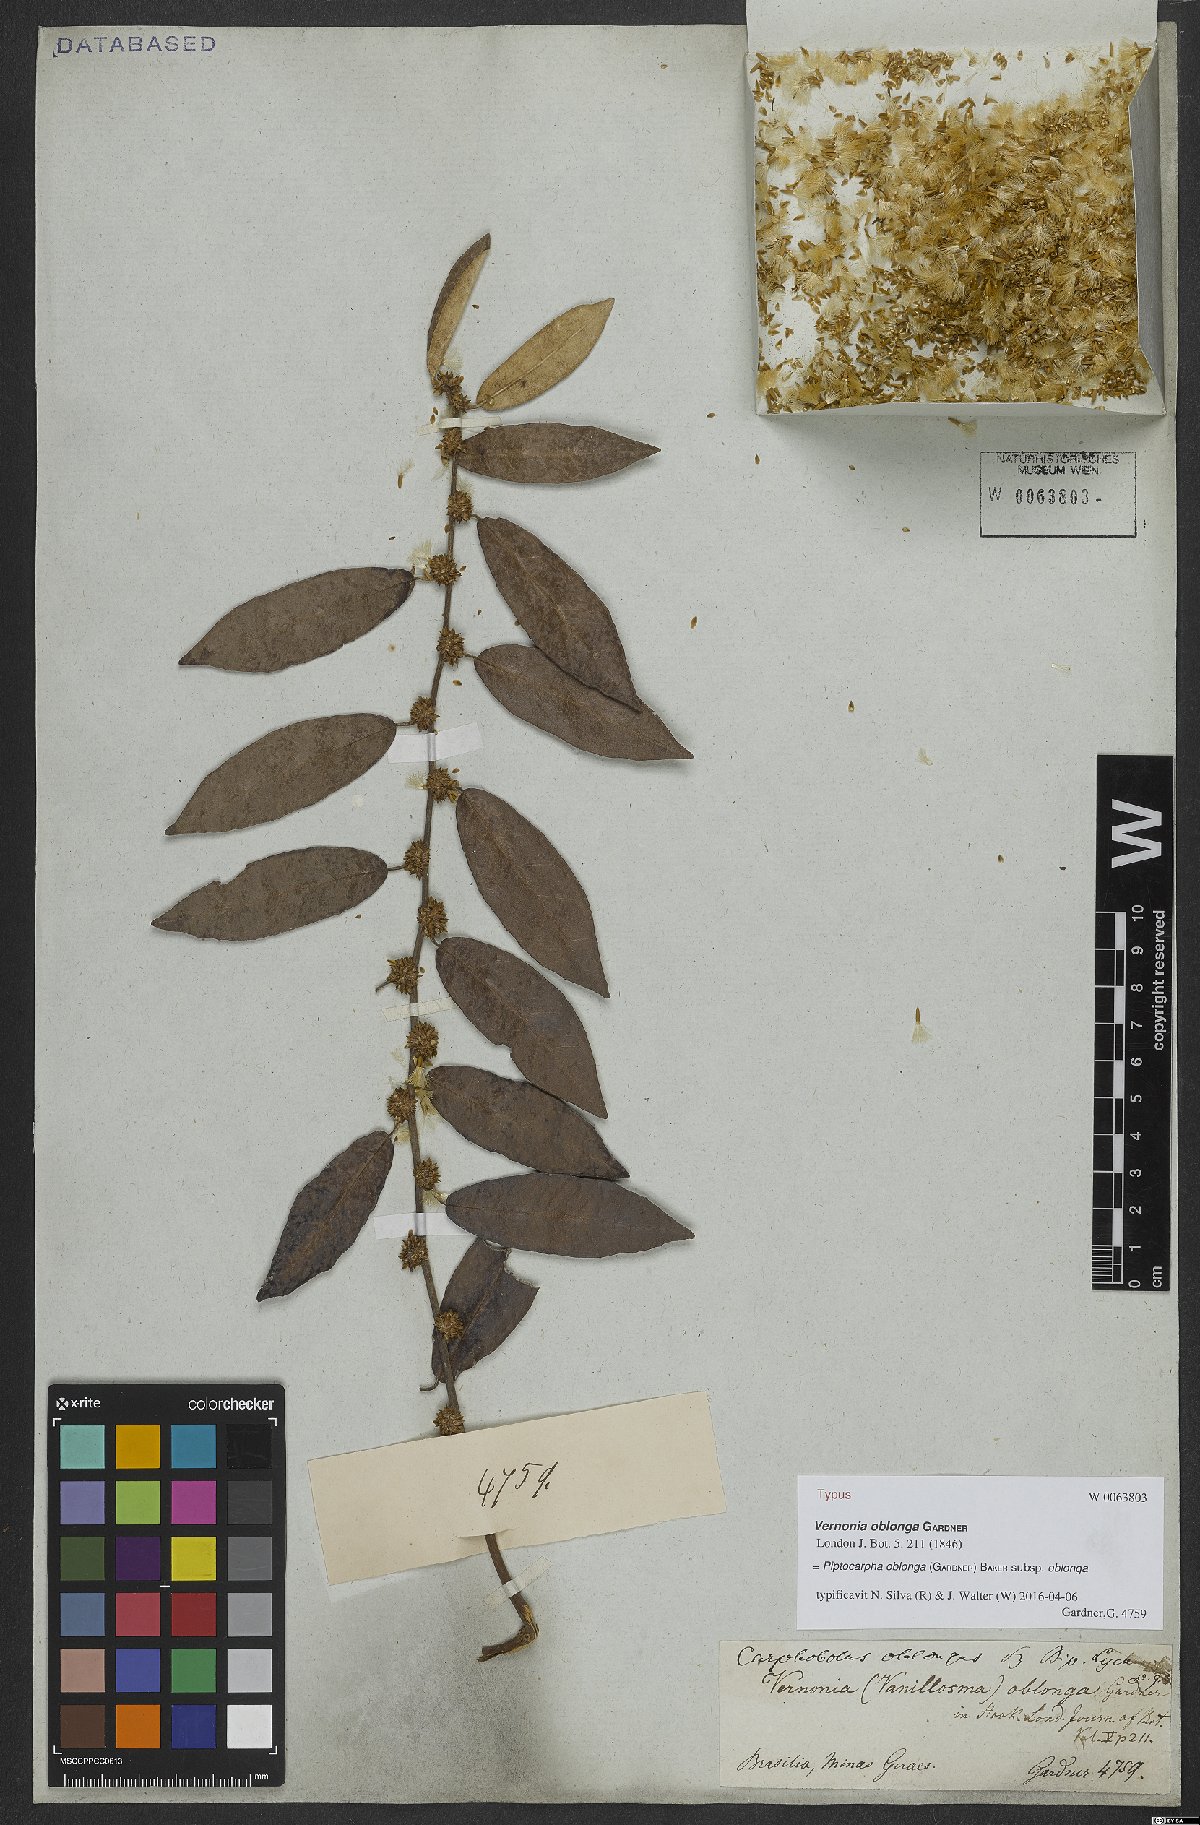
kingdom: Plantae
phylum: Tracheophyta
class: Magnoliopsida
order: Asterales
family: Asteraceae
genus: Piptocarpha
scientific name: Piptocarpha oblonga
